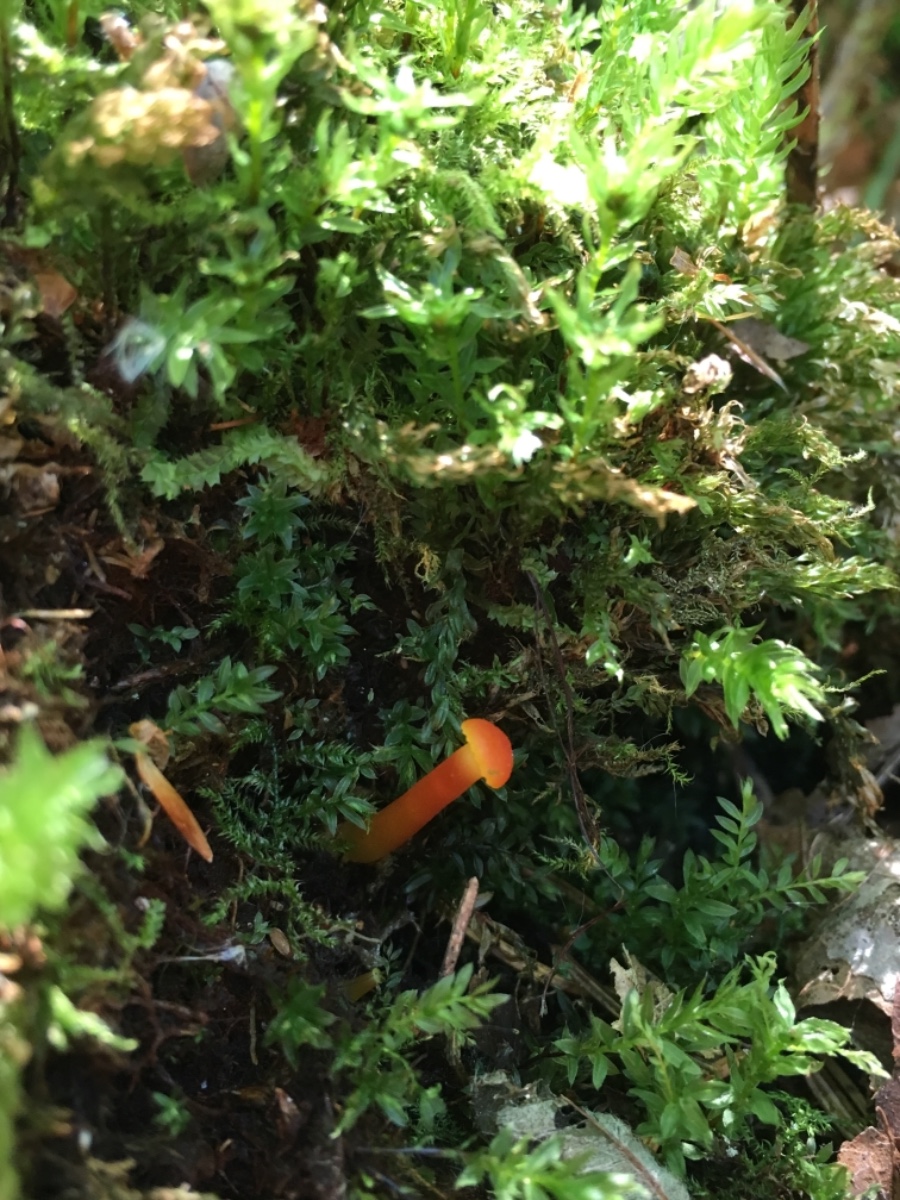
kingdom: Fungi
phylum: Basidiomycota
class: Agaricomycetes
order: Agaricales
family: Hygrophoraceae
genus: Hygrocybe
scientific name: Hygrocybe
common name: vokshat
